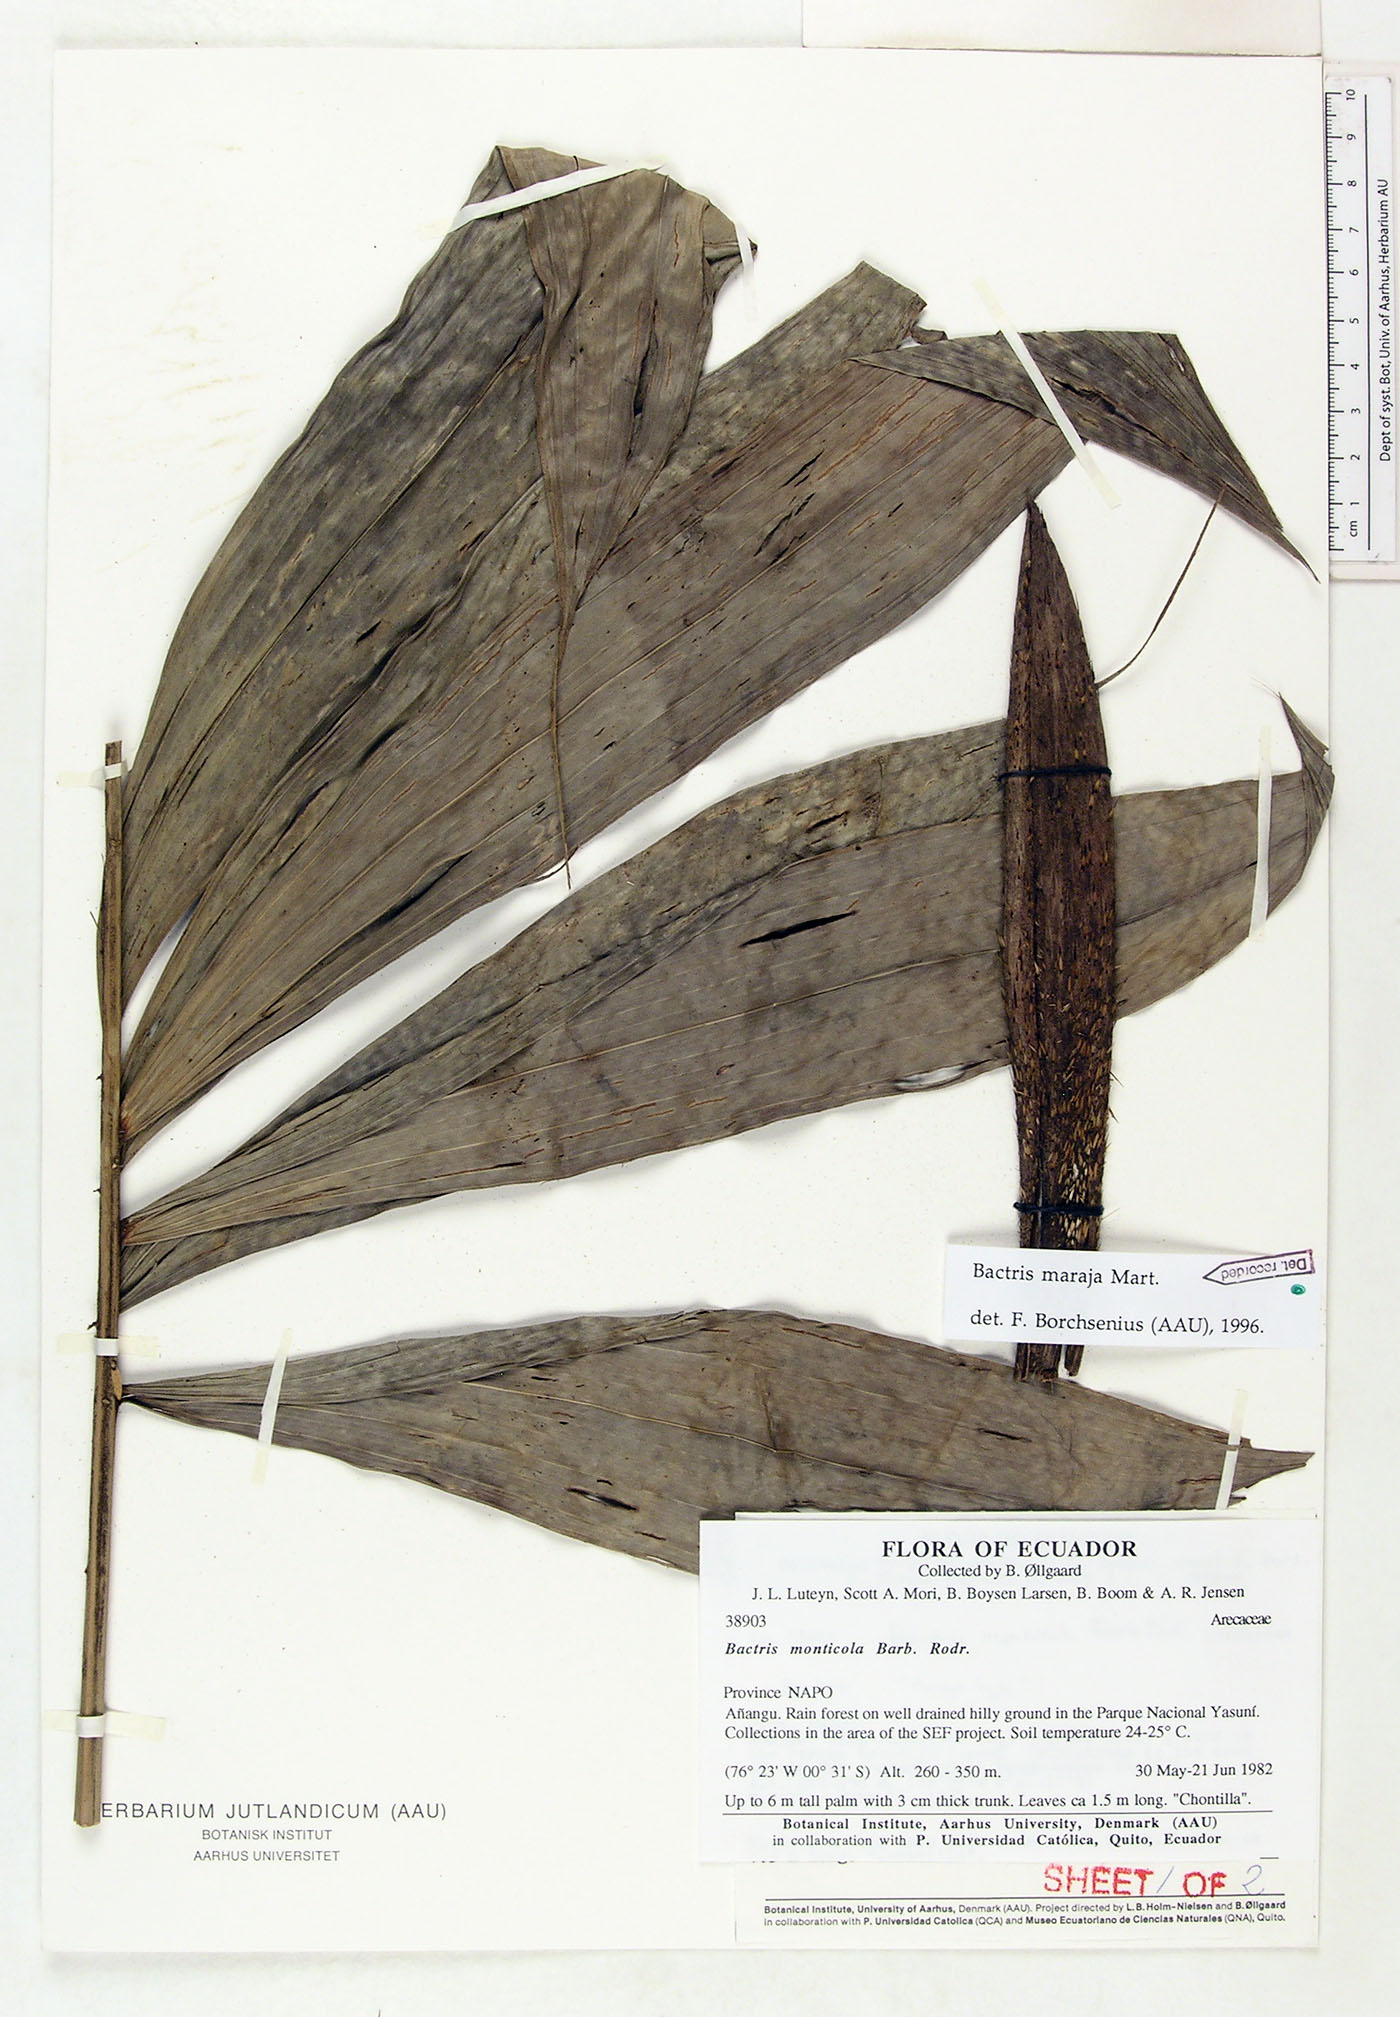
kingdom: Plantae
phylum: Tracheophyta
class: Liliopsida
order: Arecales
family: Arecaceae
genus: Bactris
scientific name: Bactris maraja
